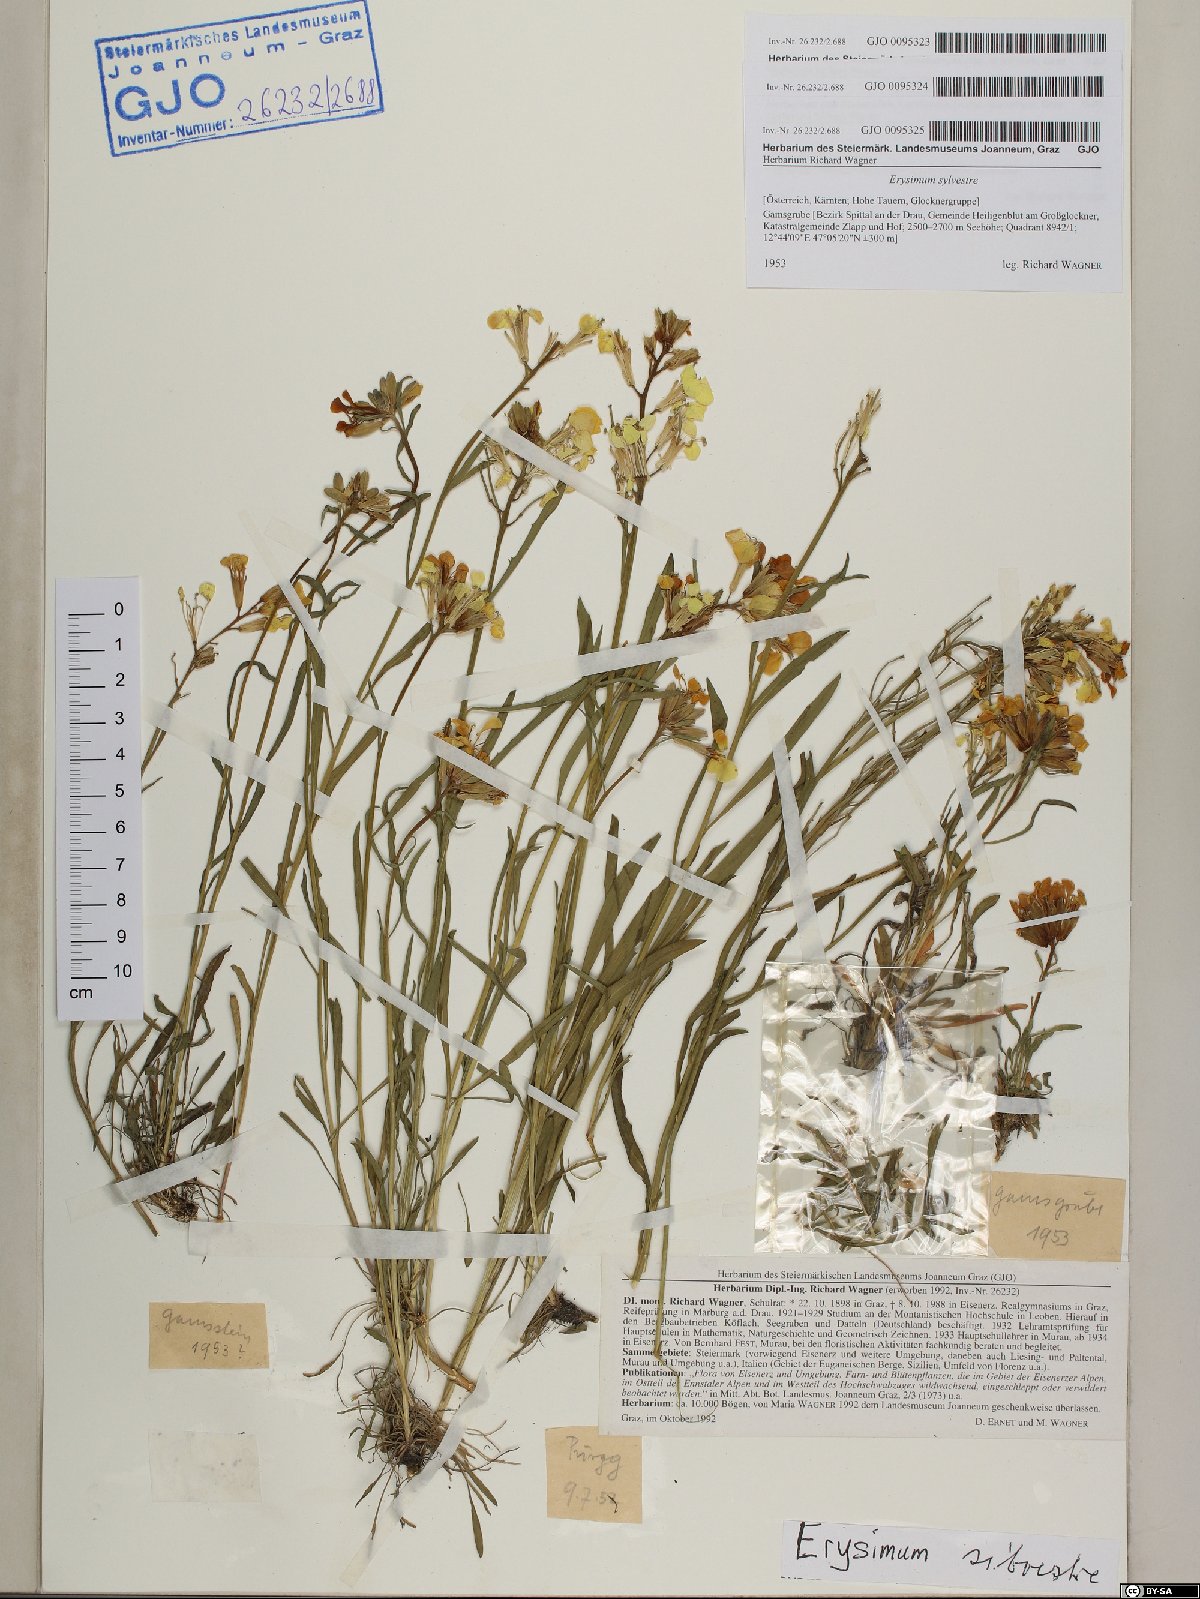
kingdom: Plantae
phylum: Tracheophyta
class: Magnoliopsida
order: Brassicales
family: Brassicaceae
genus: Erysimum
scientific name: Erysimum sylvestre
